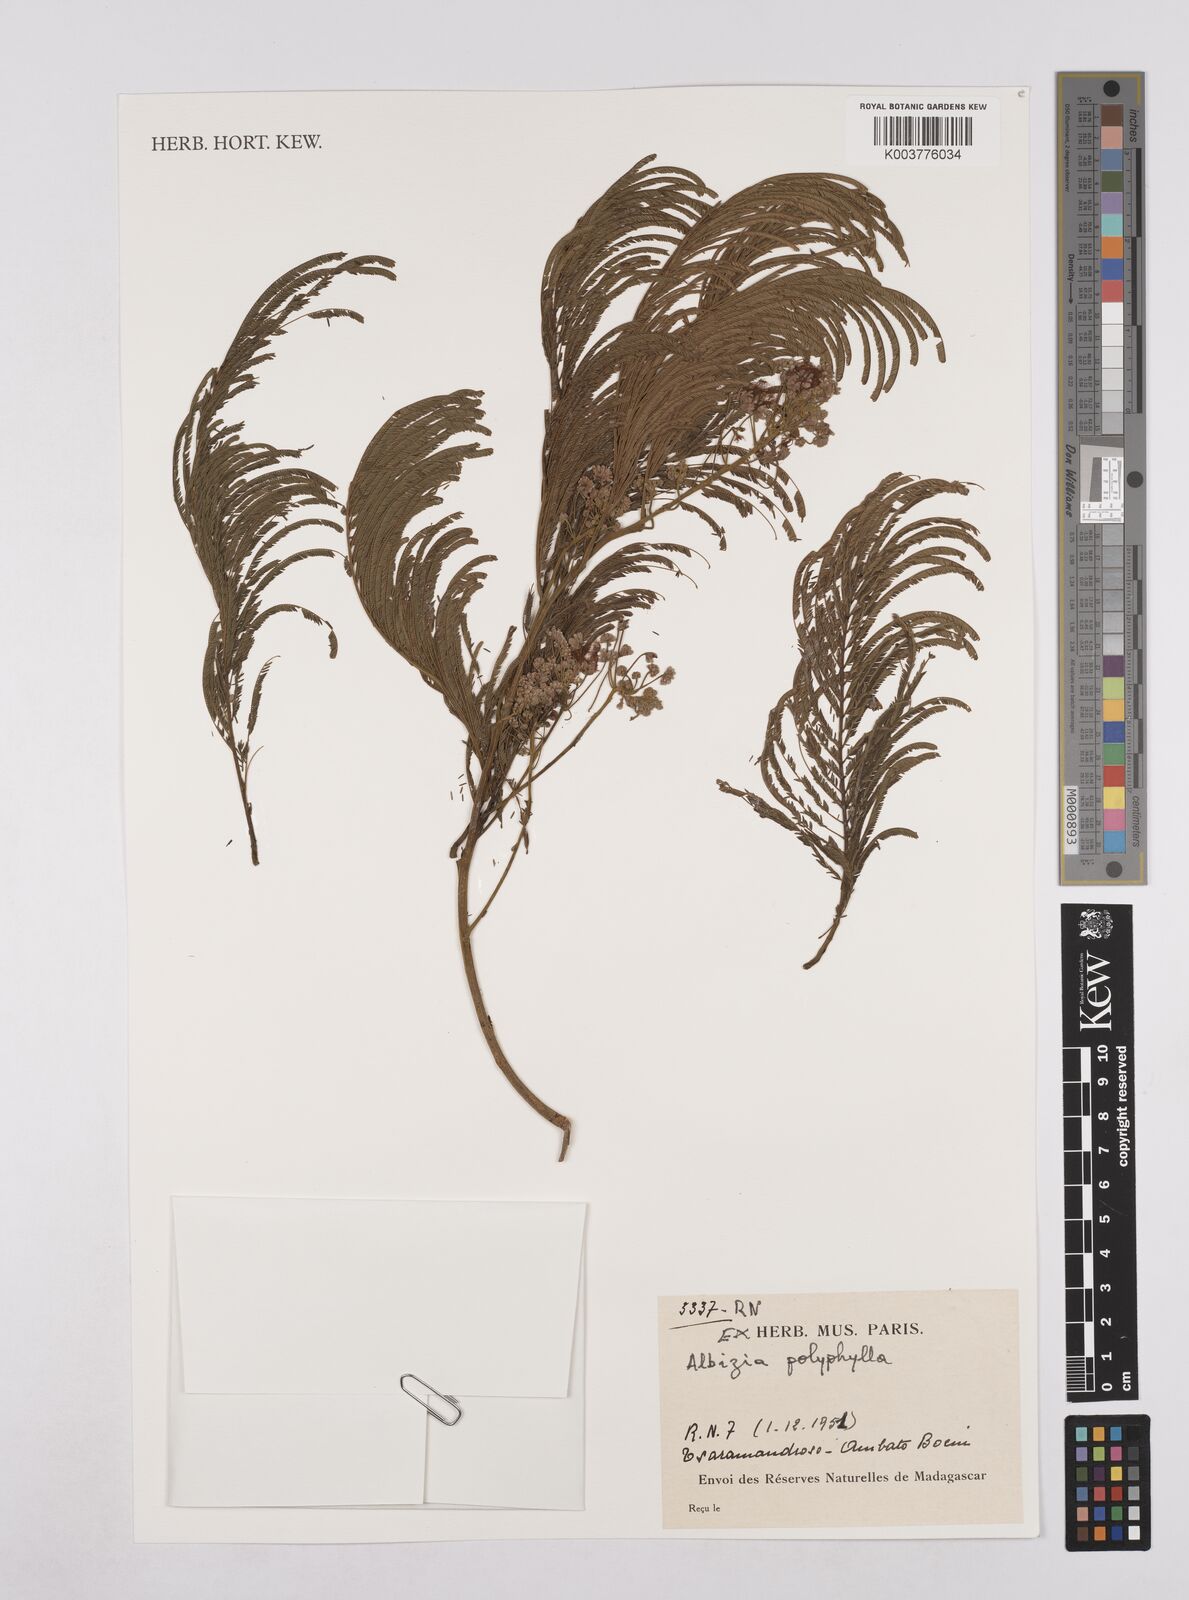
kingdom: Plantae
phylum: Tracheophyta
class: Magnoliopsida
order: Fabales
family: Fabaceae
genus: Albizia
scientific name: Albizia polyphylla
